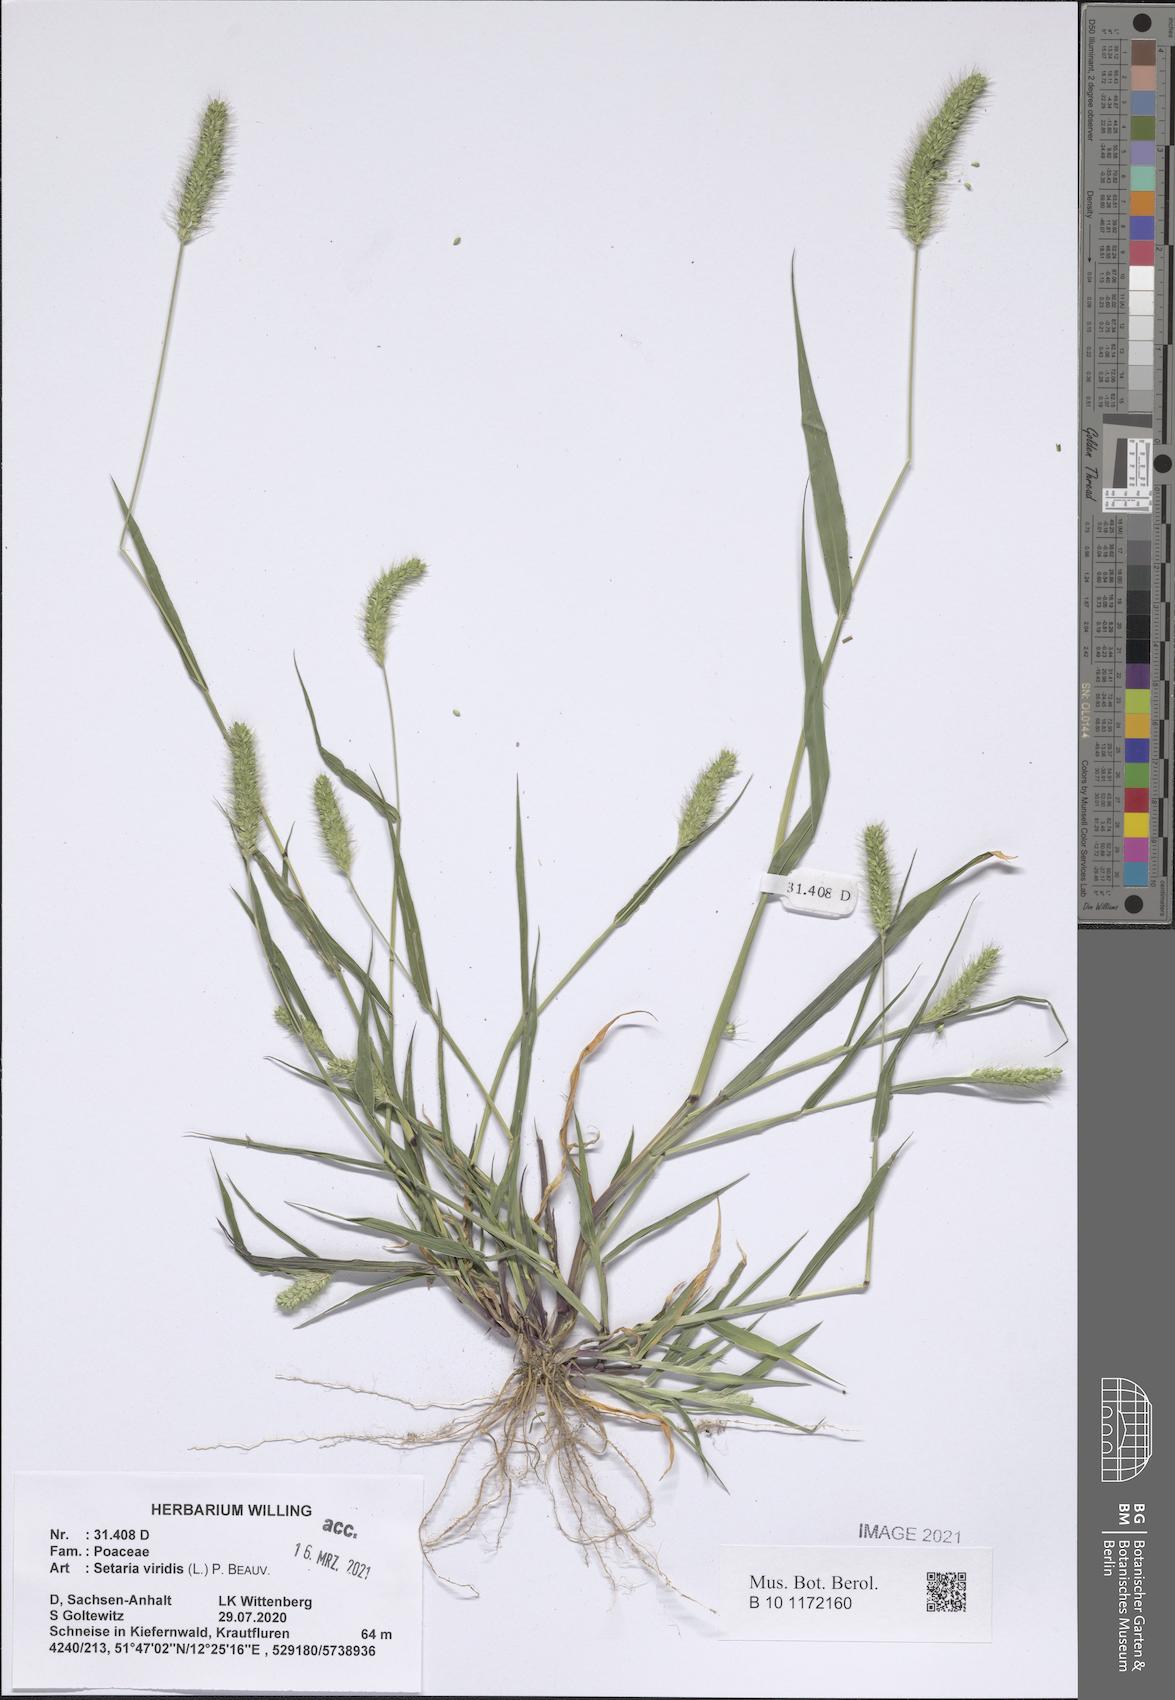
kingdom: Plantae
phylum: Tracheophyta
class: Liliopsida
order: Poales
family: Poaceae
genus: Setaria
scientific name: Setaria viridis
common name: Green bristlegrass
